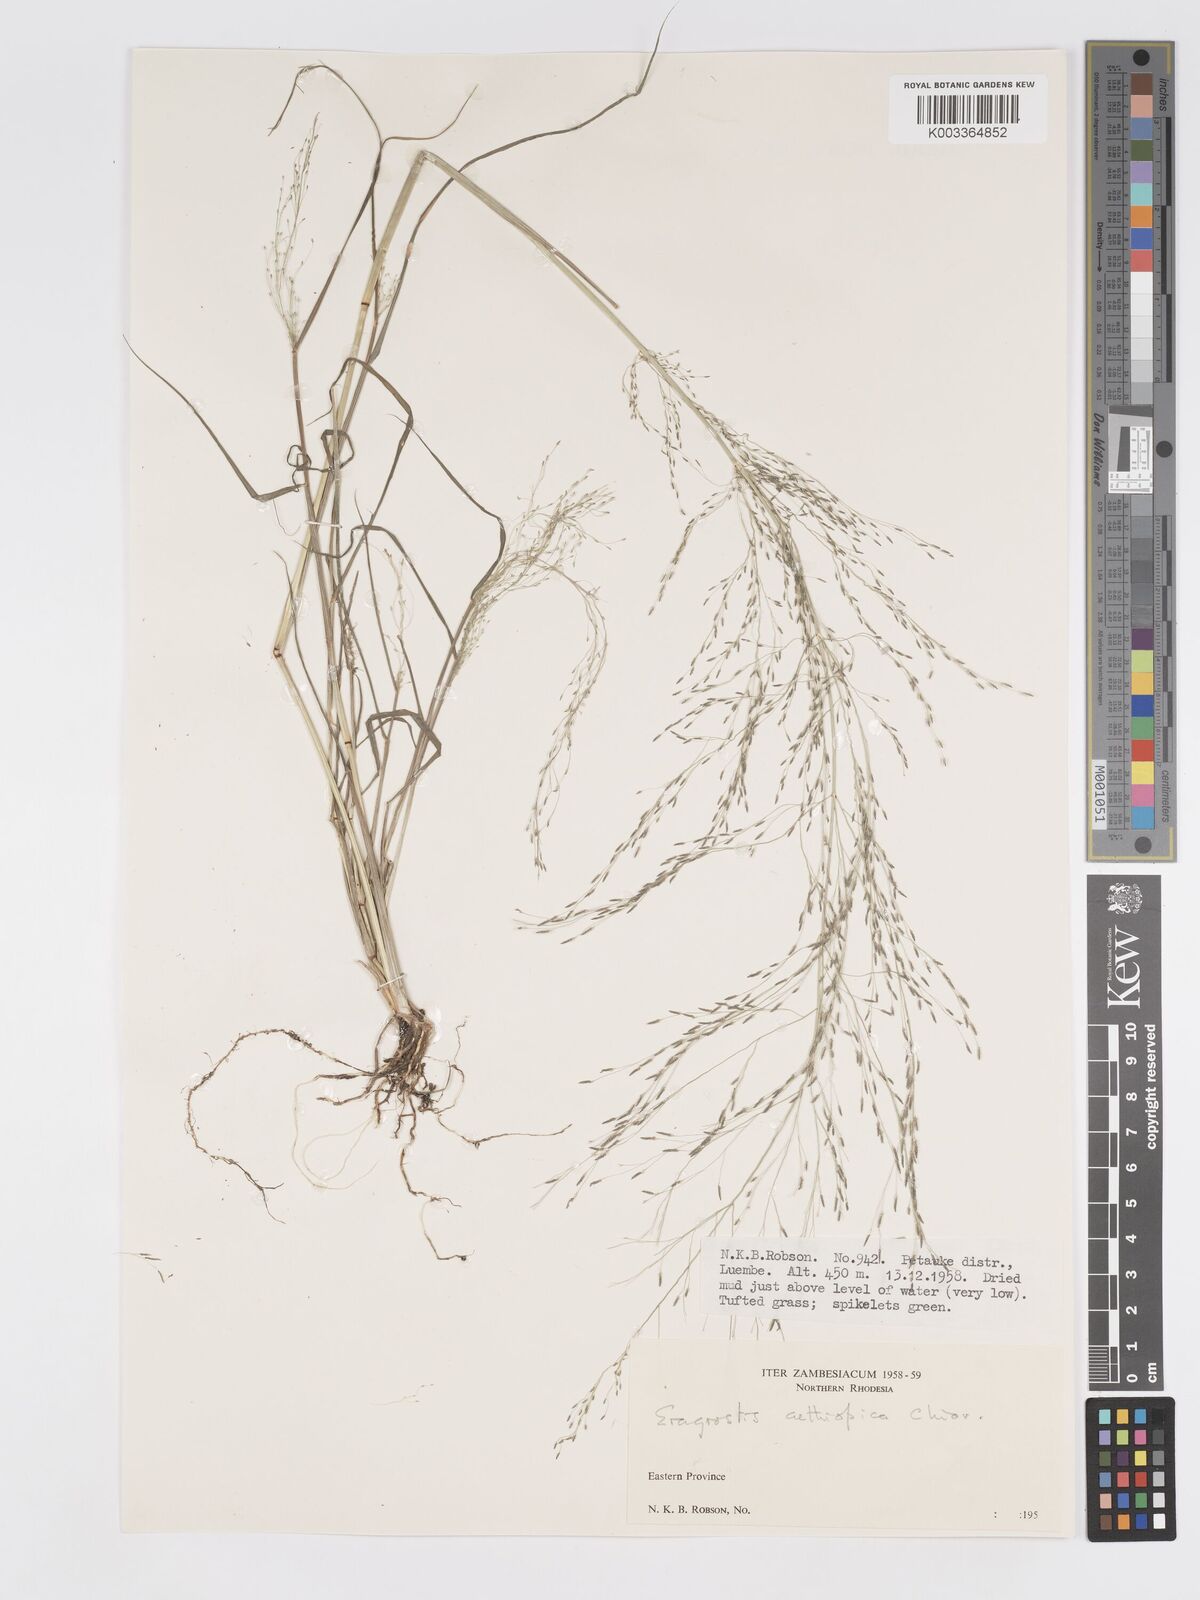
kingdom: Plantae
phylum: Tracheophyta
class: Liliopsida
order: Poales
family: Poaceae
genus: Eragrostis
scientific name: Eragrostis aethiopica
